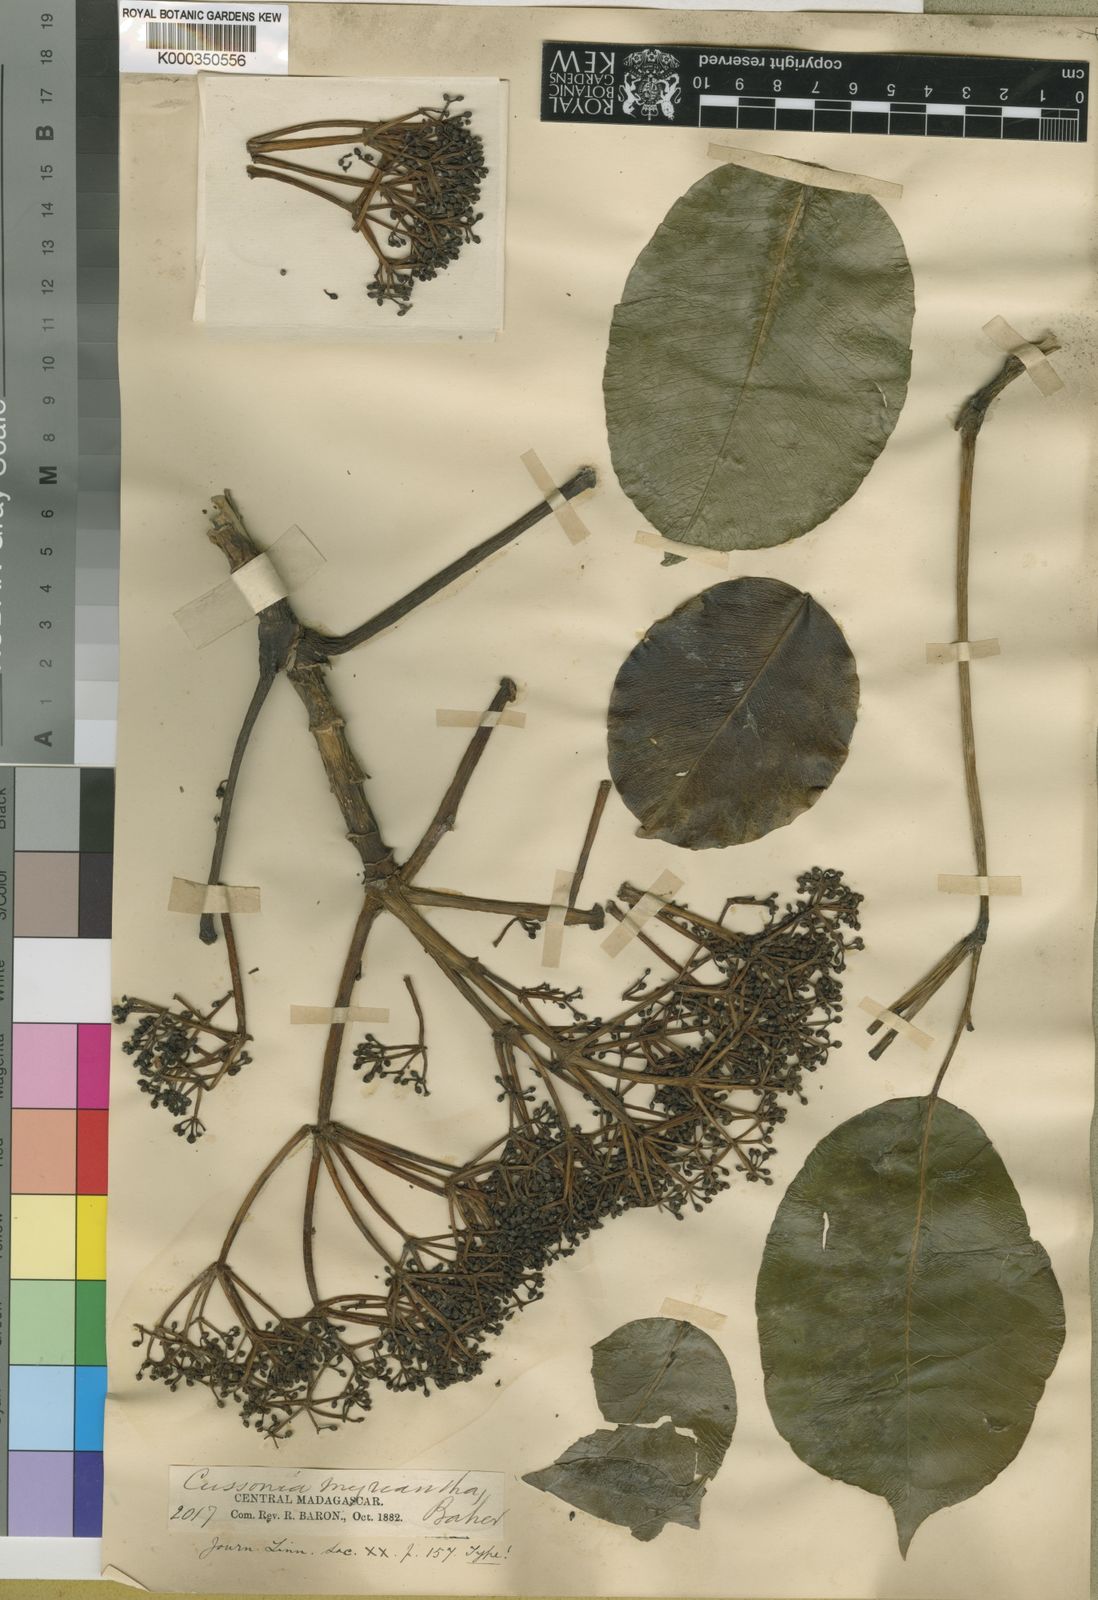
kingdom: Plantae
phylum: Tracheophyta
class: Magnoliopsida
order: Apiales
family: Araliaceae
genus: Astropanax
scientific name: Astropanax myrianthus
